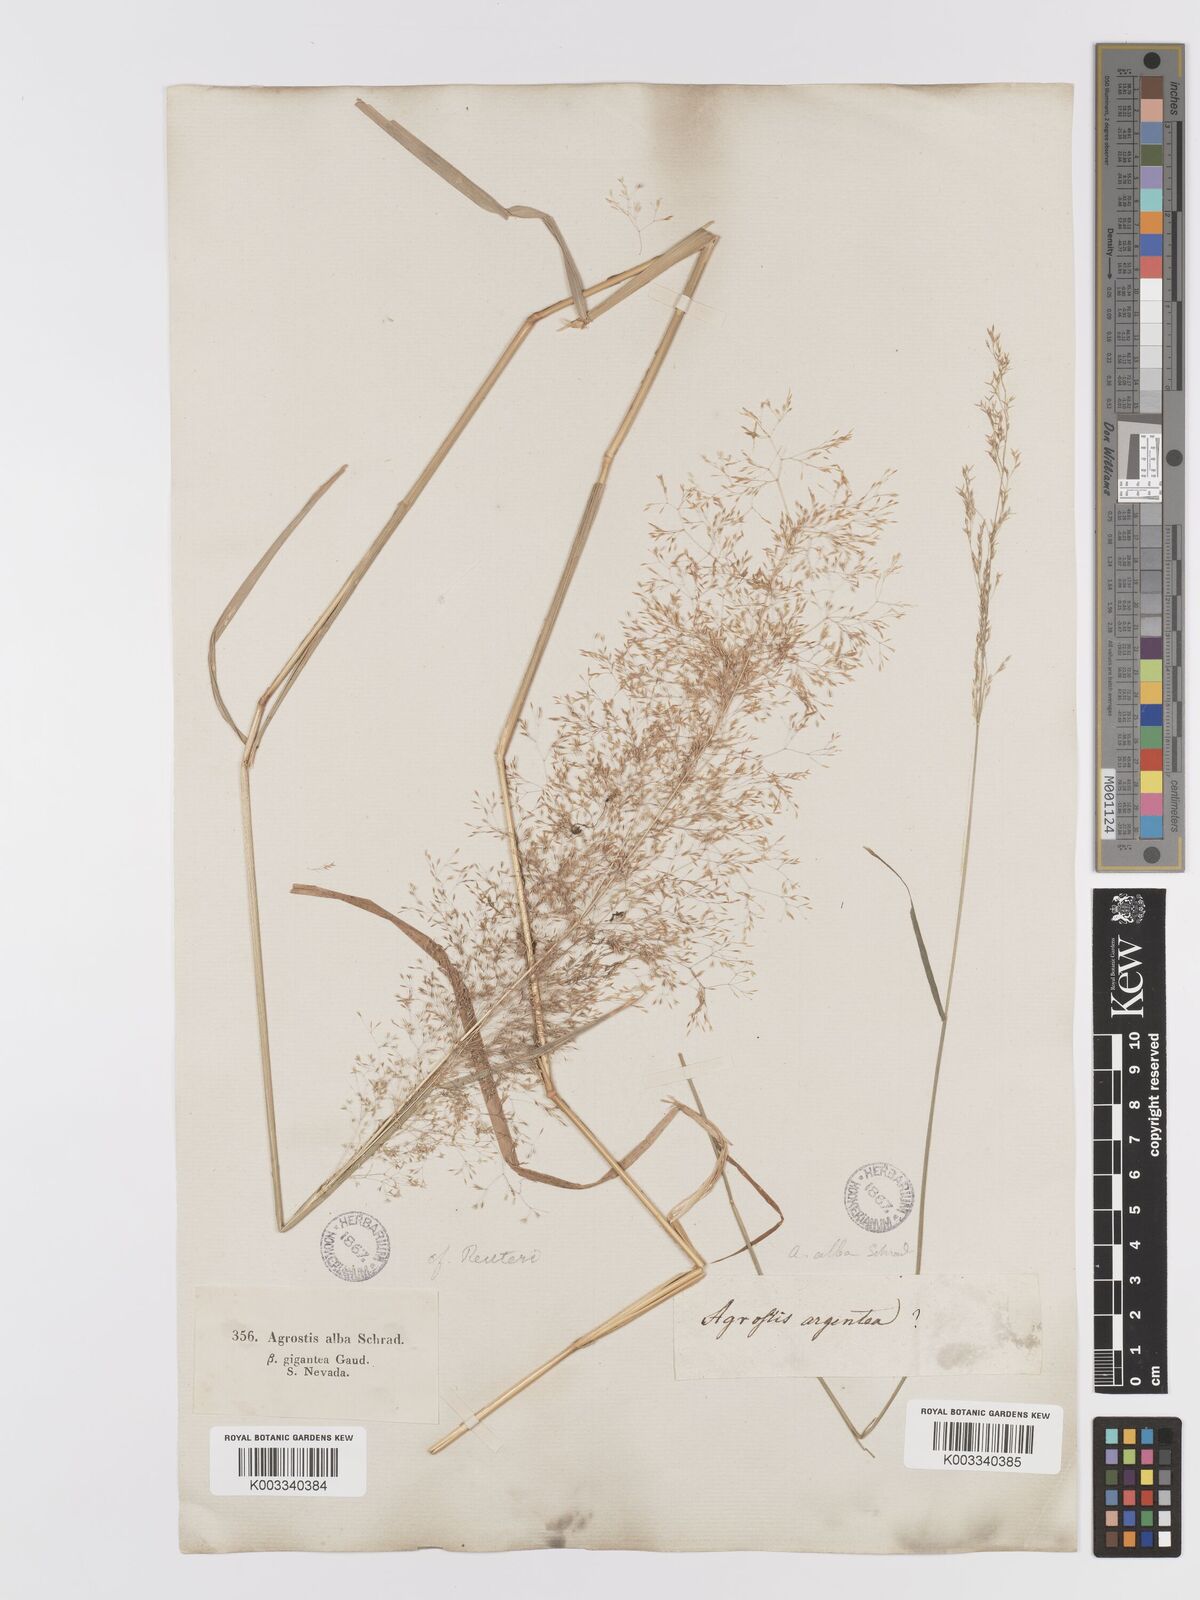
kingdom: Plantae
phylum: Tracheophyta
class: Liliopsida
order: Poales
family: Poaceae
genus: Agrostis
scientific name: Agrostis reuteri
